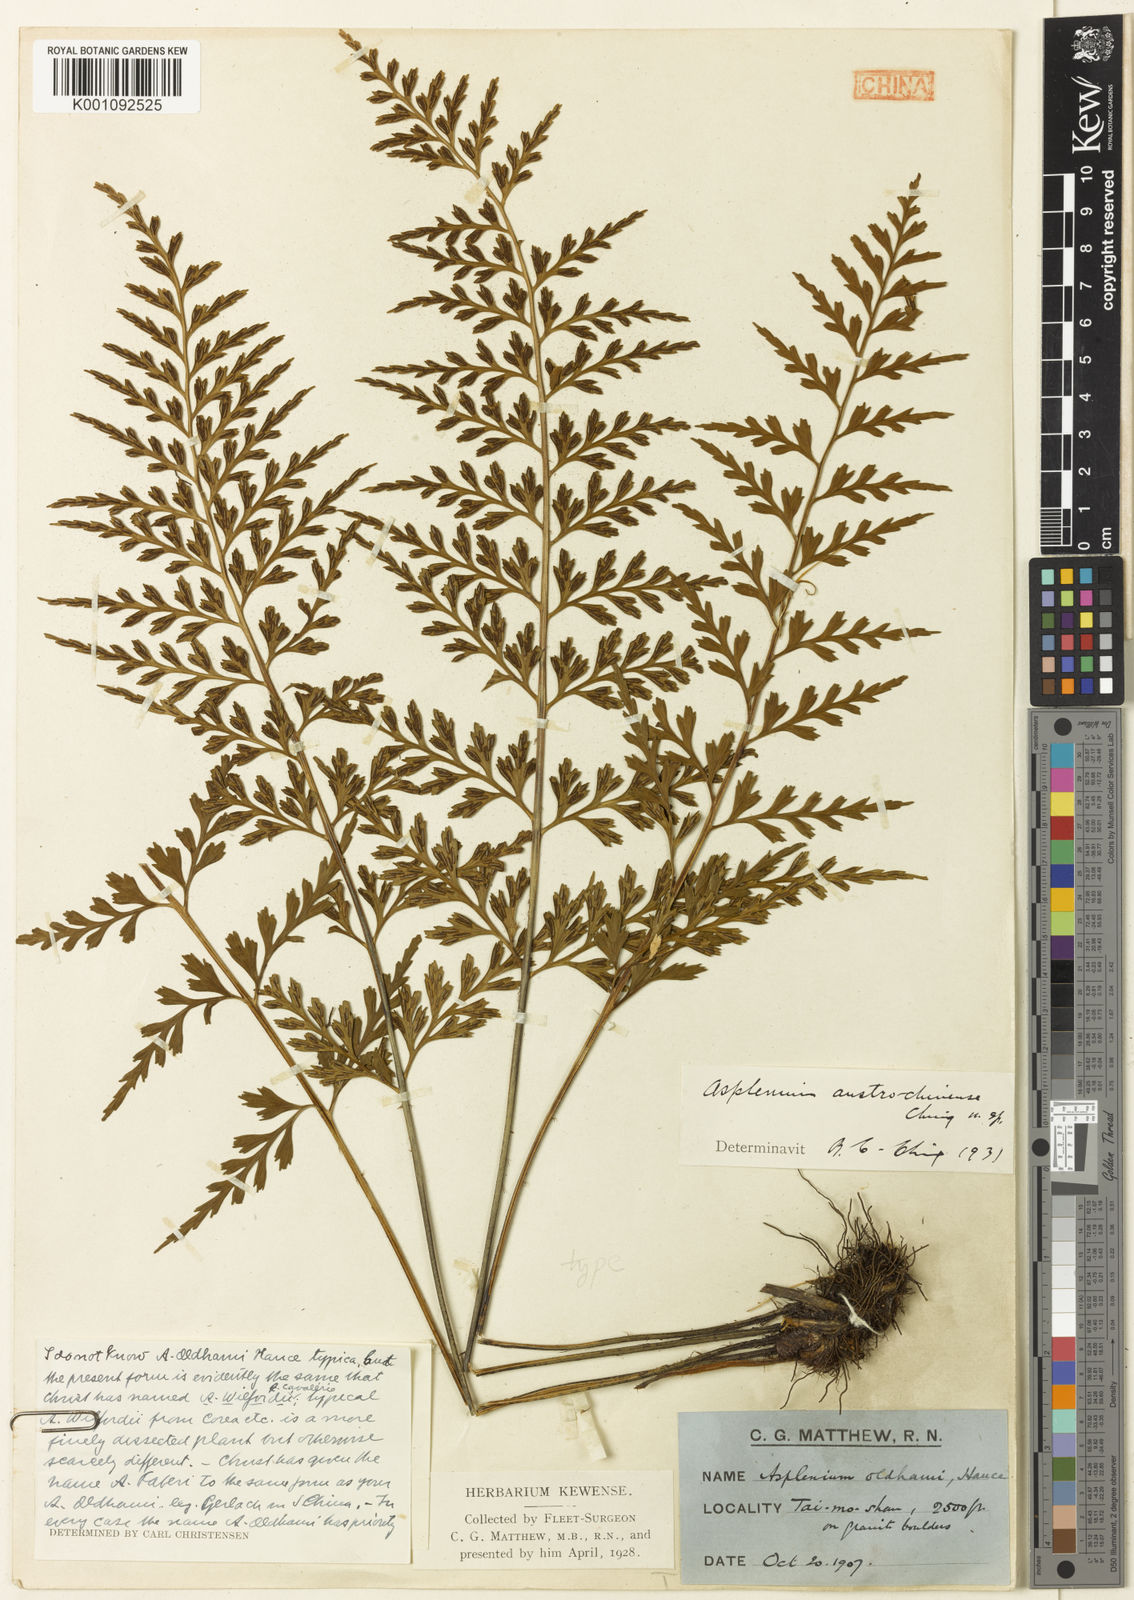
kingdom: Plantae
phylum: Tracheophyta
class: Polypodiopsida
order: Polypodiales
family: Aspleniaceae
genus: Asplenium
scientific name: Asplenium austrochinense
